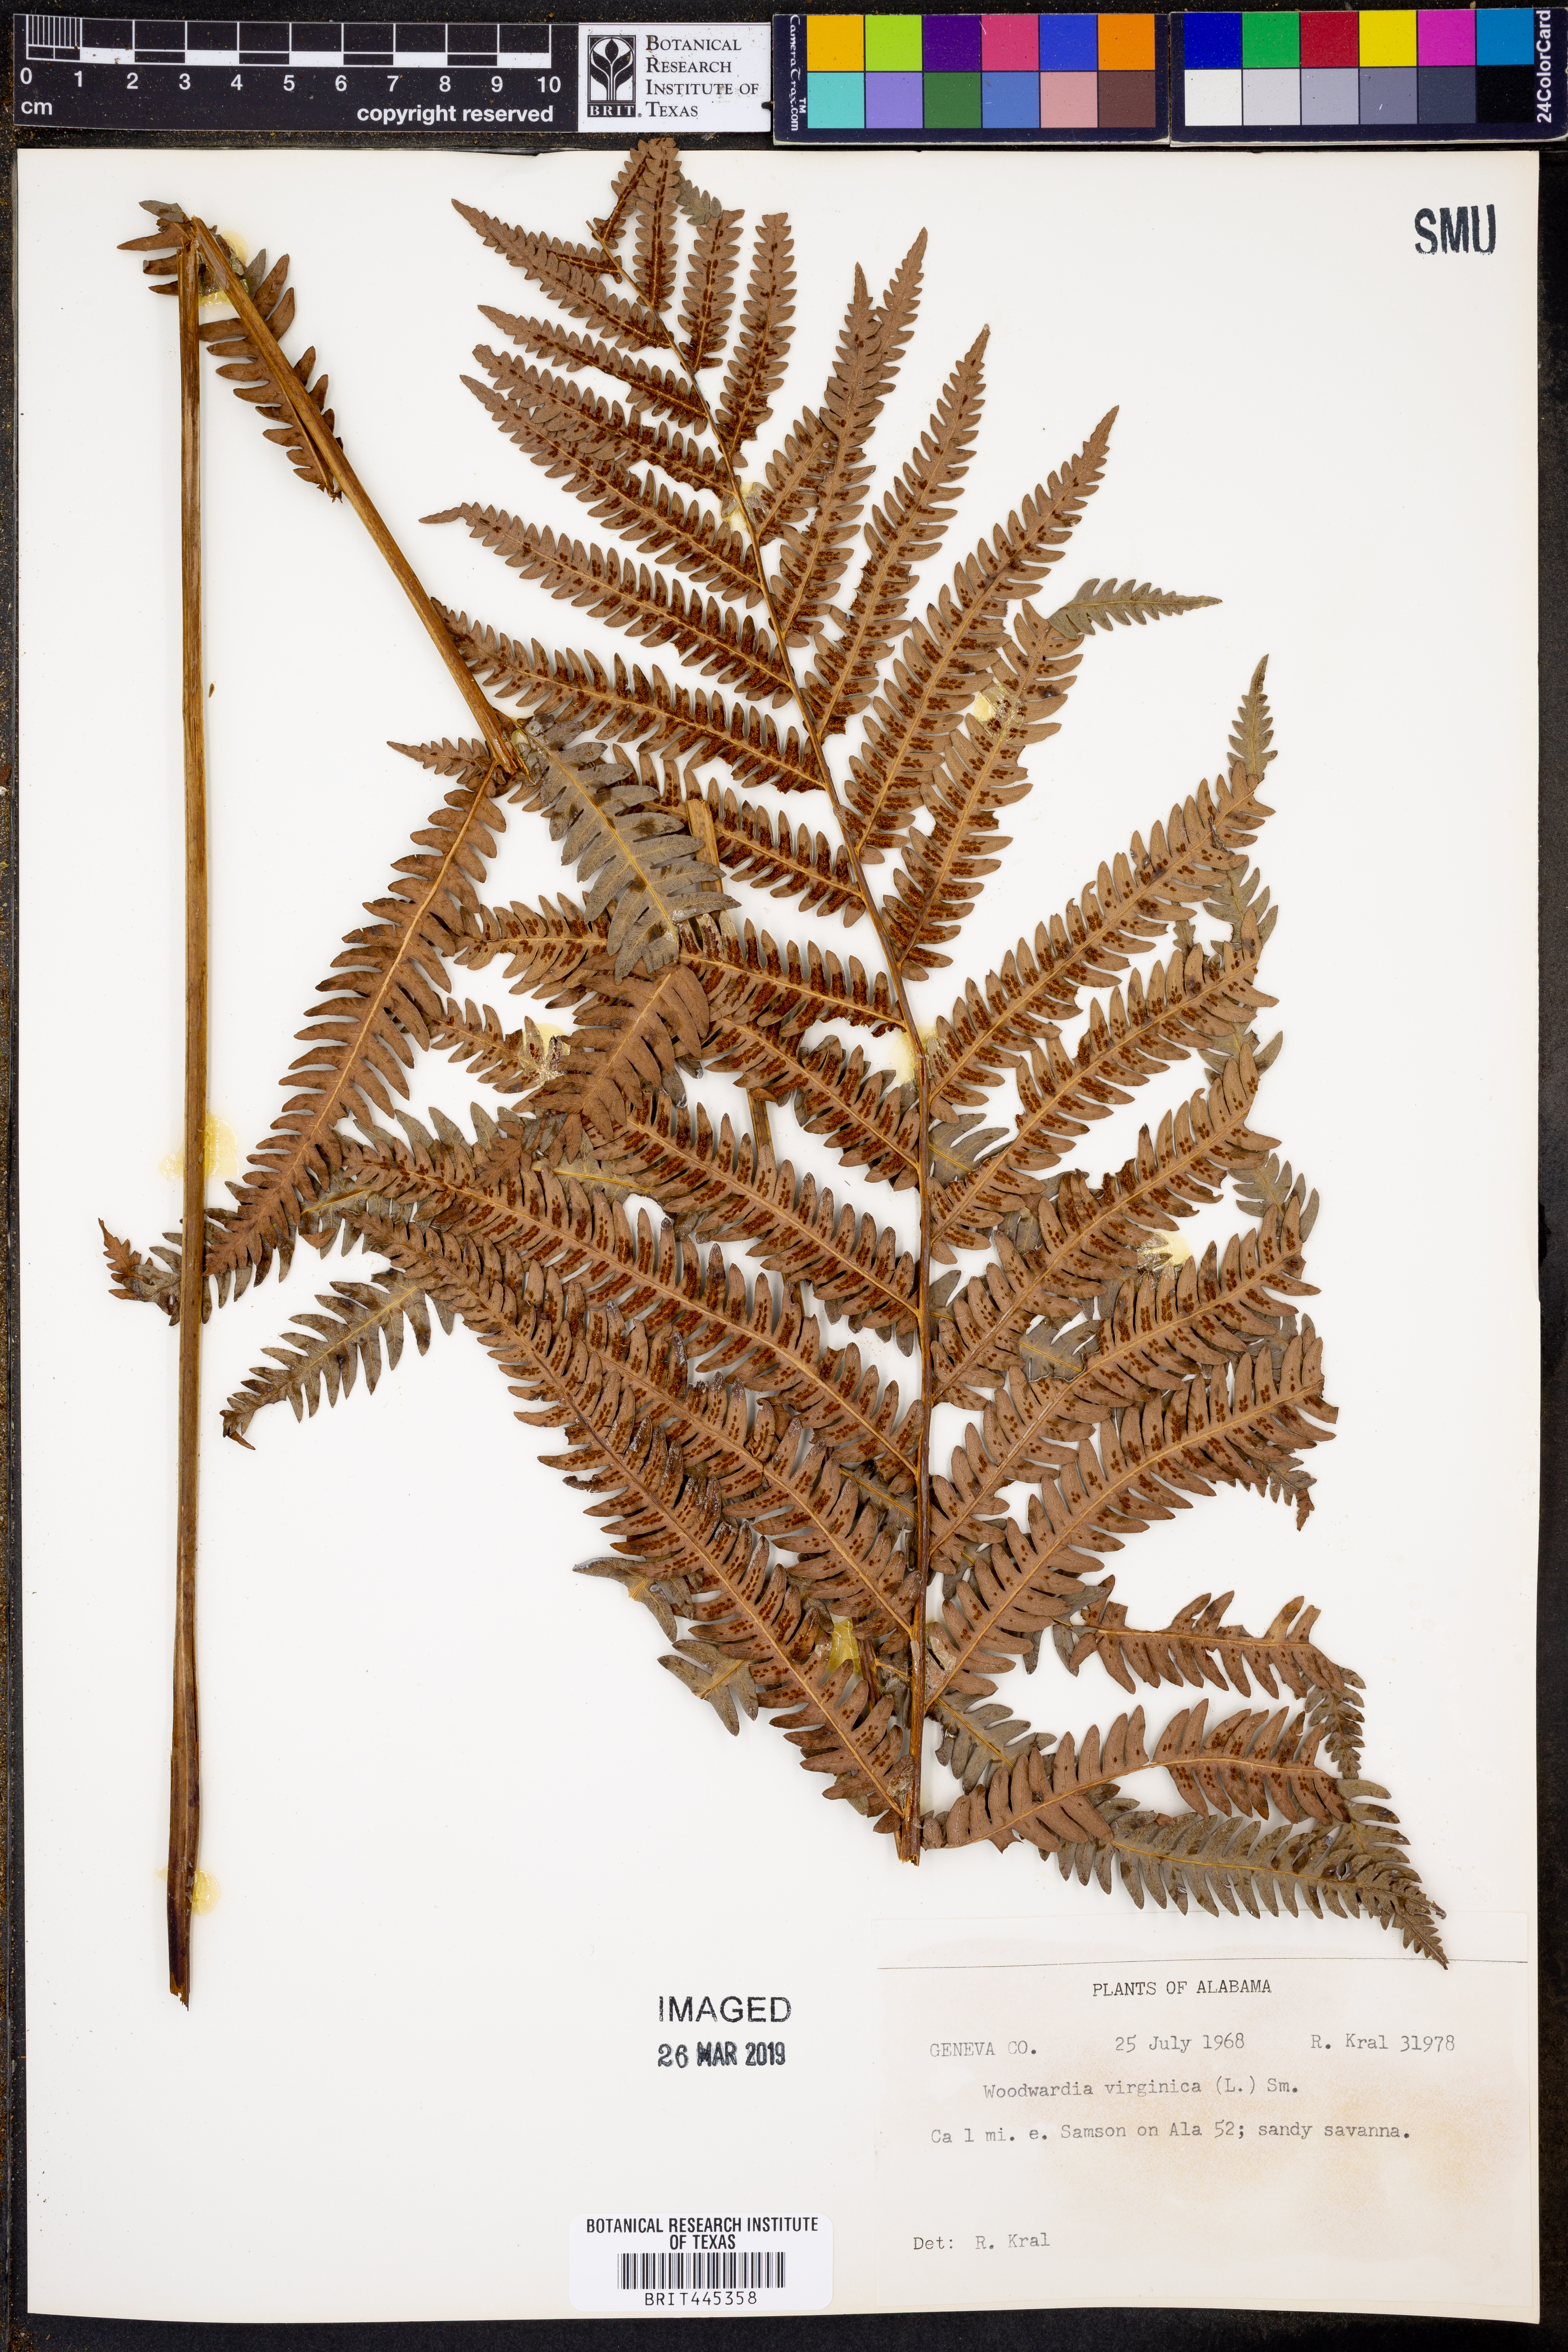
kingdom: Plantae
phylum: Tracheophyta
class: Polypodiopsida
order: Polypodiales
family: Blechnaceae
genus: Anchistea
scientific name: Anchistea virginica
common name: Virginia chain fern
